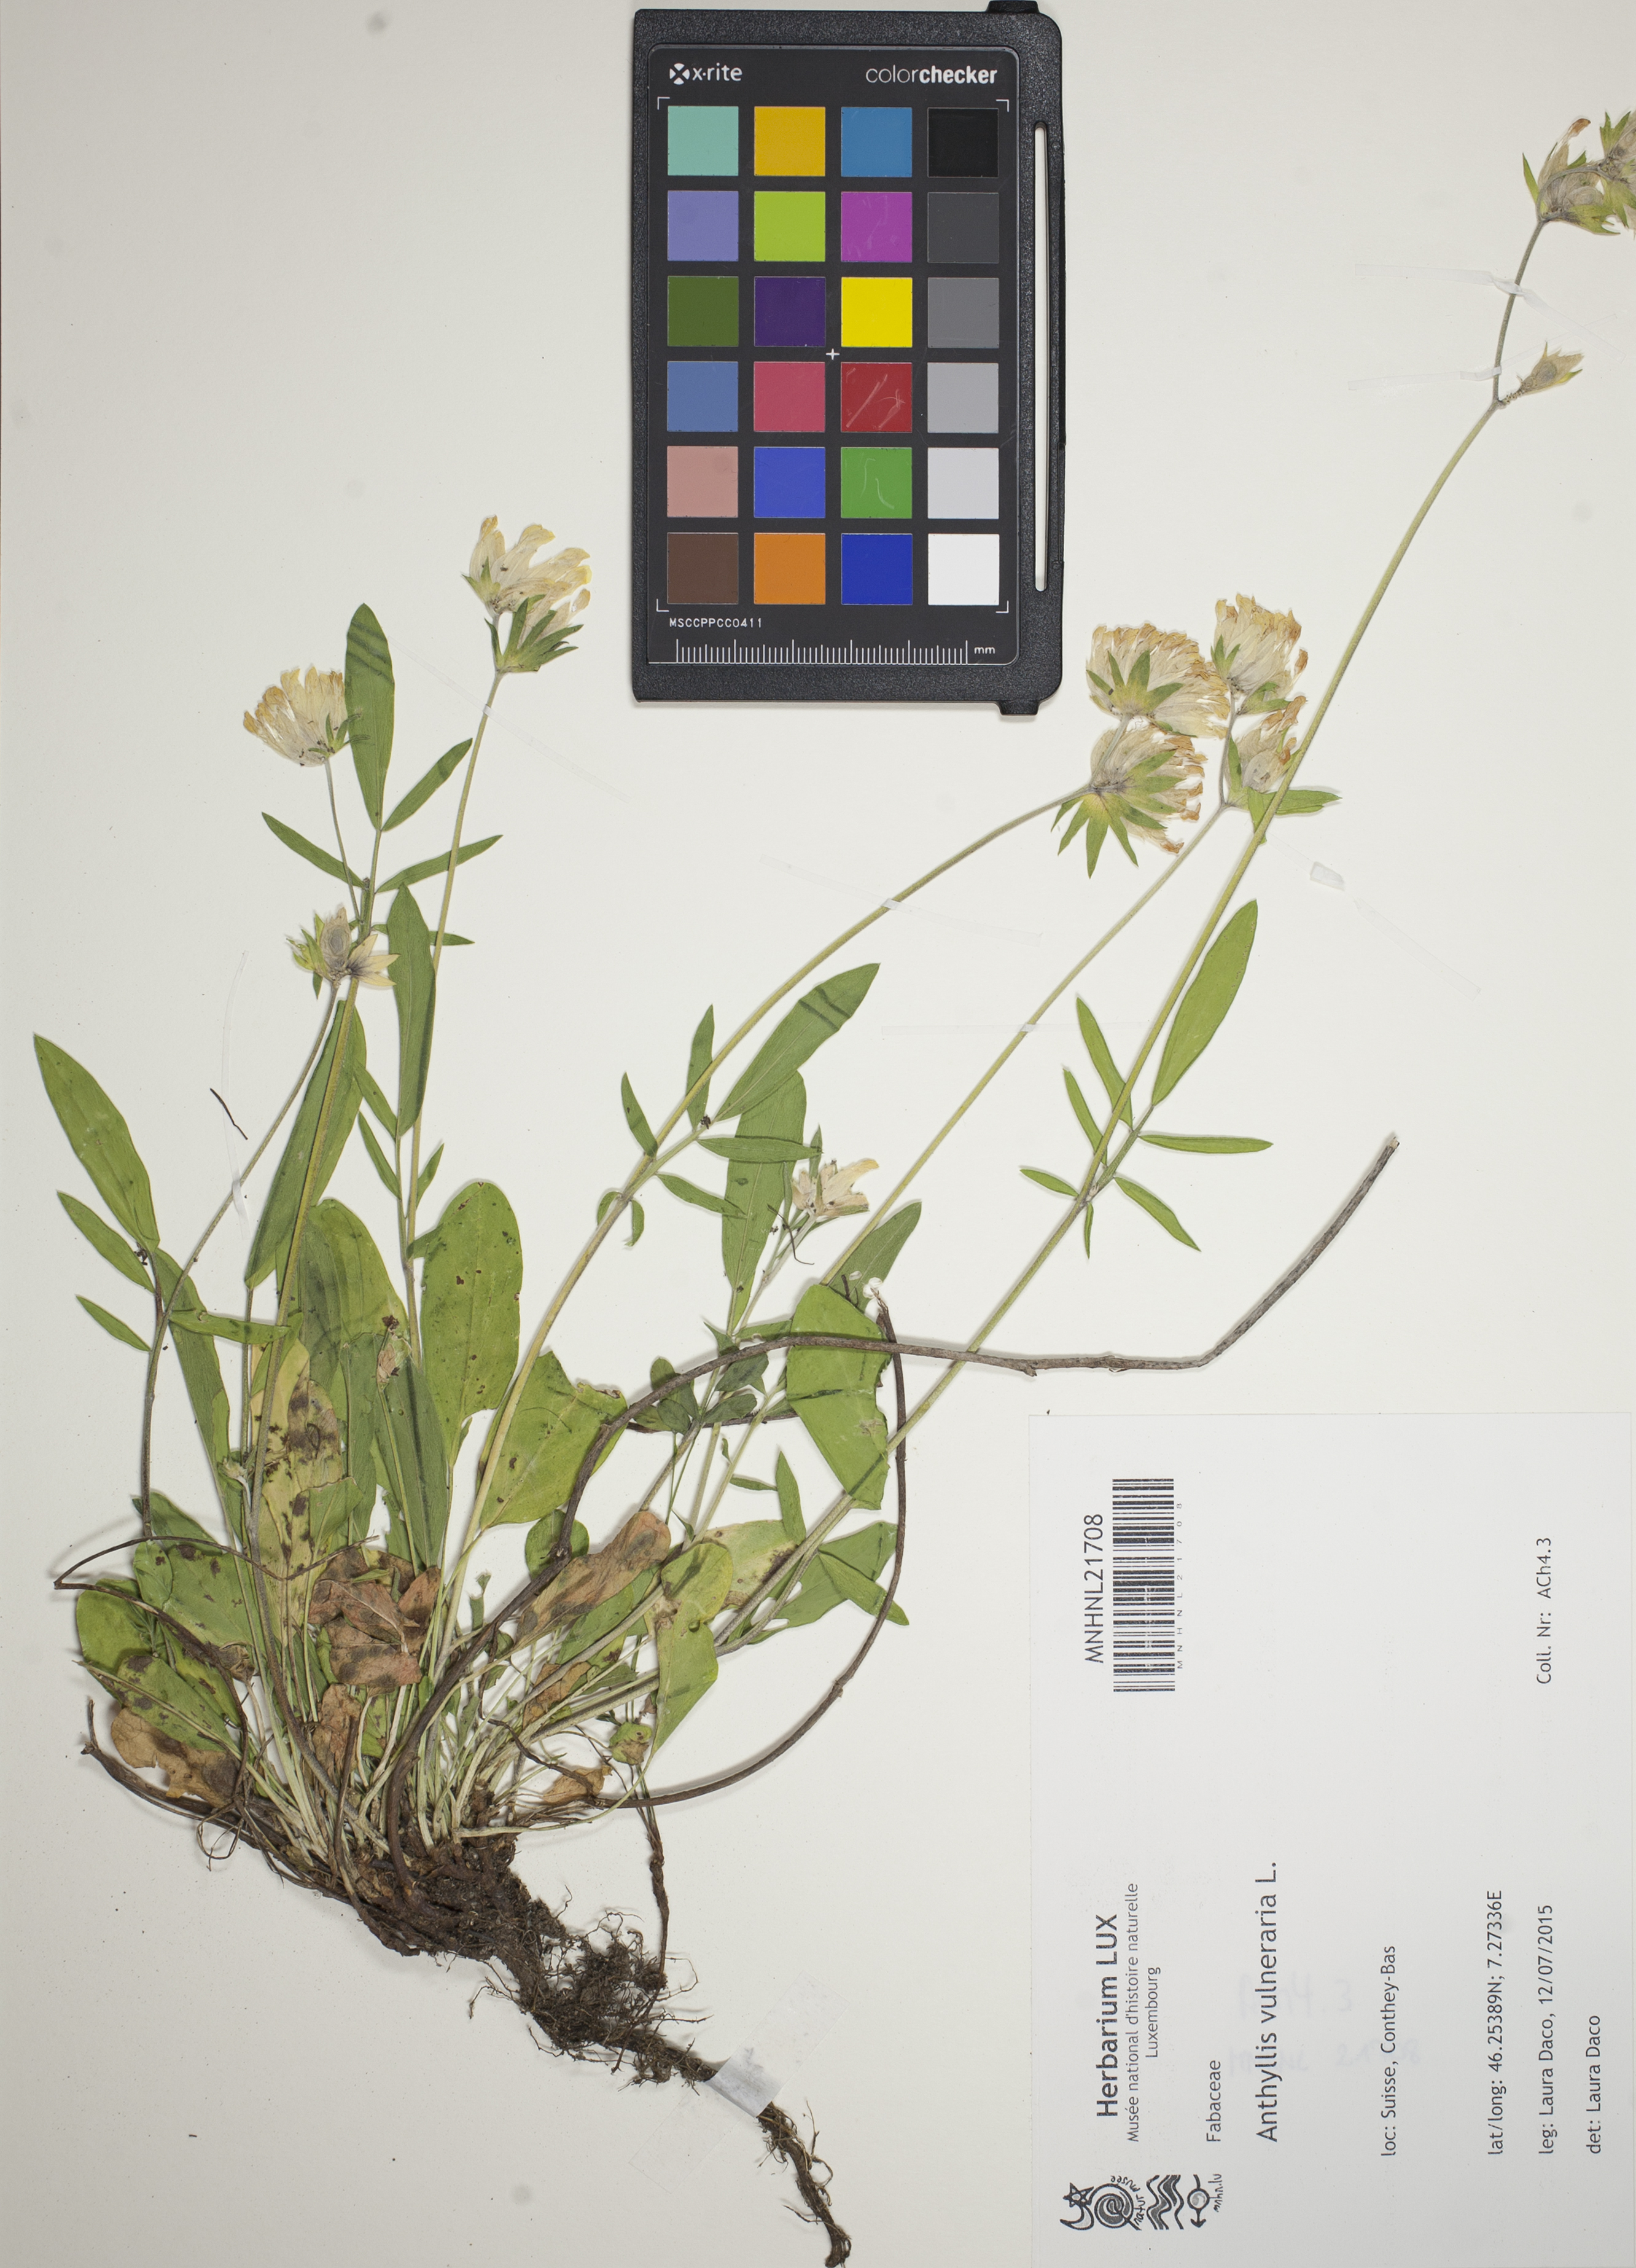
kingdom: Plantae
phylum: Tracheophyta
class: Magnoliopsida
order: Fabales
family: Fabaceae
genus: Anthyllis
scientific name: Anthyllis vulneraria
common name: Kidney vetch
